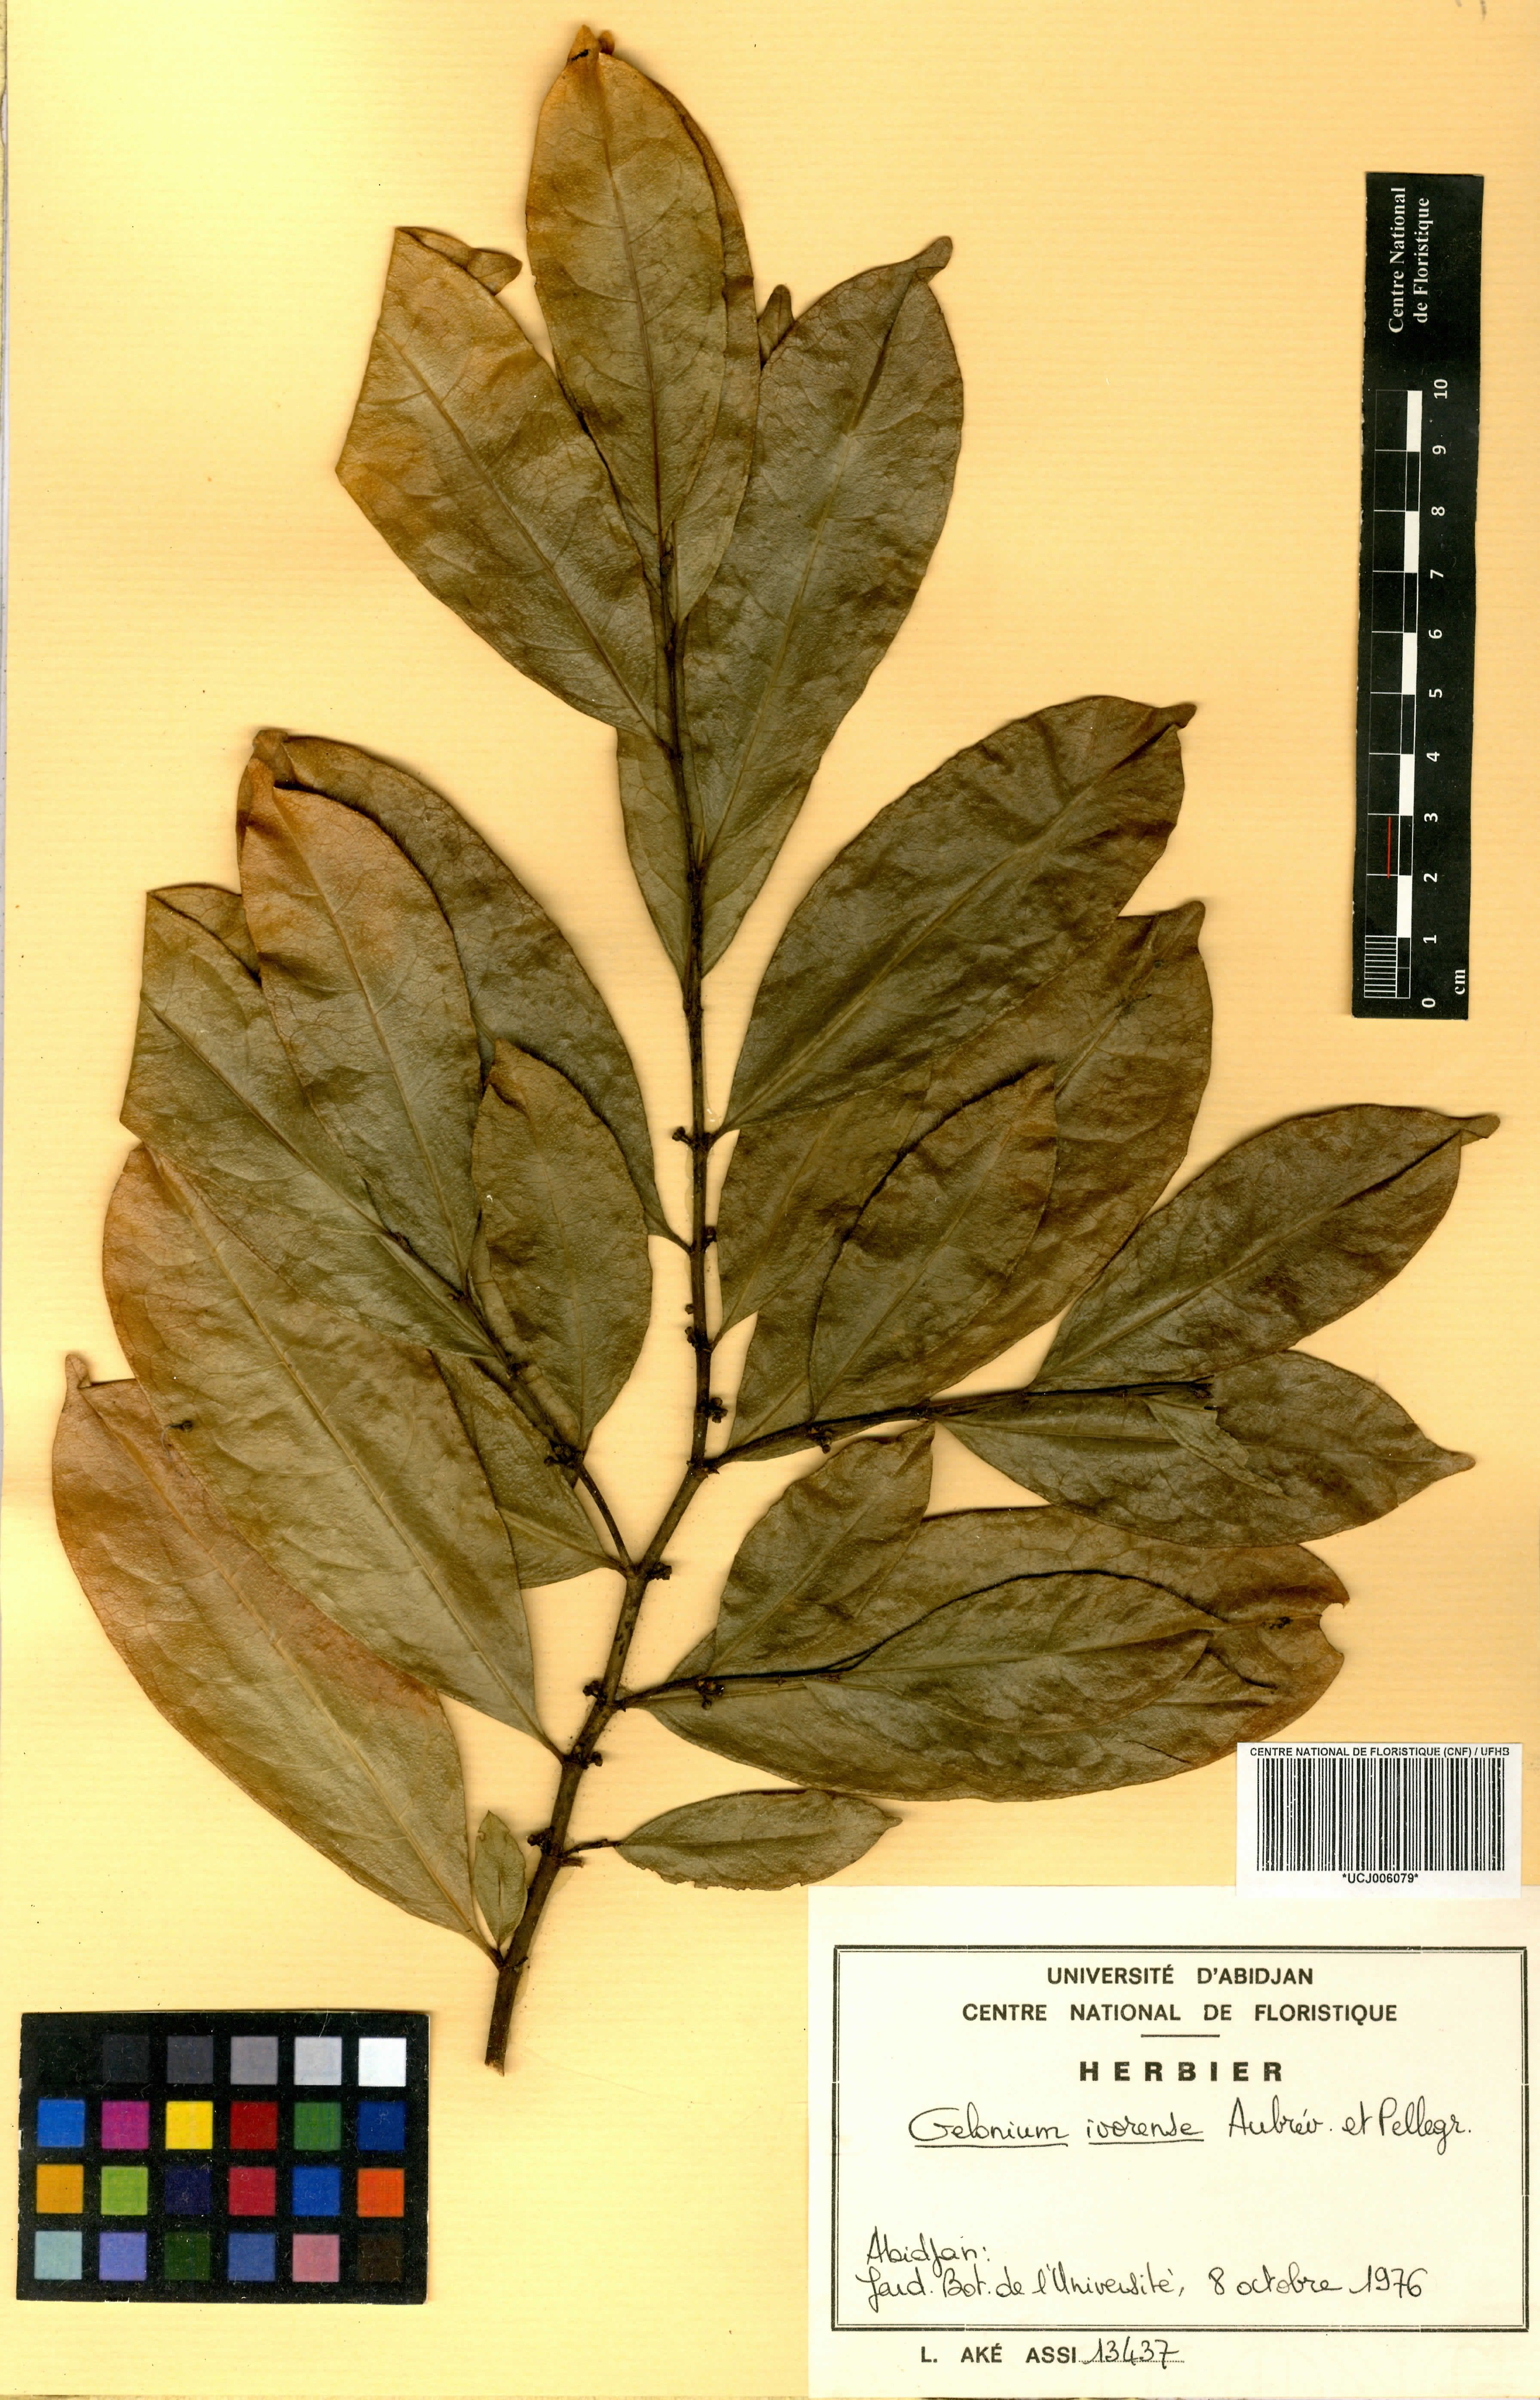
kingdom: Plantae
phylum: Tracheophyta
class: Magnoliopsida
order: Malpighiales
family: Euphorbiaceae
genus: Suregada
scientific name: Suregada ivorensis
